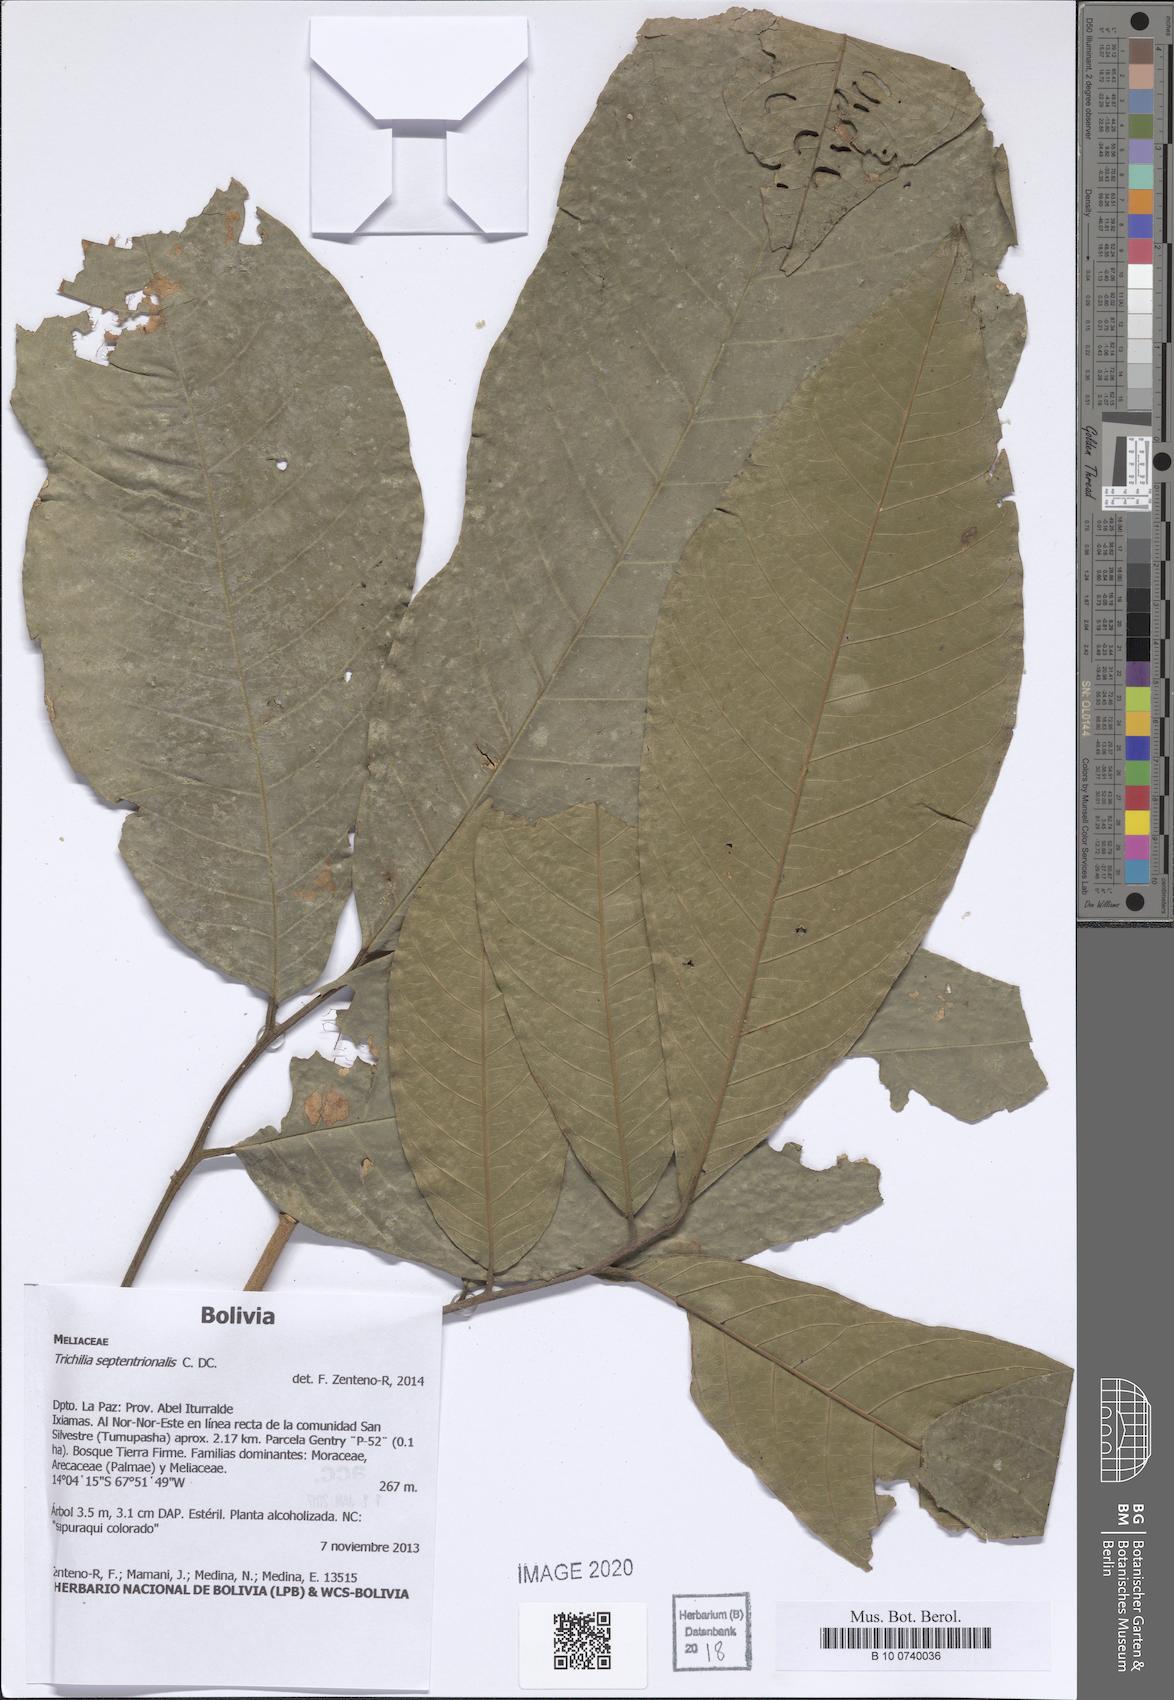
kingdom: Plantae
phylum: Tracheophyta
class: Magnoliopsida
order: Sapindales
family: Meliaceae
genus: Trichilia
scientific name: Trichilia septentrionalis
